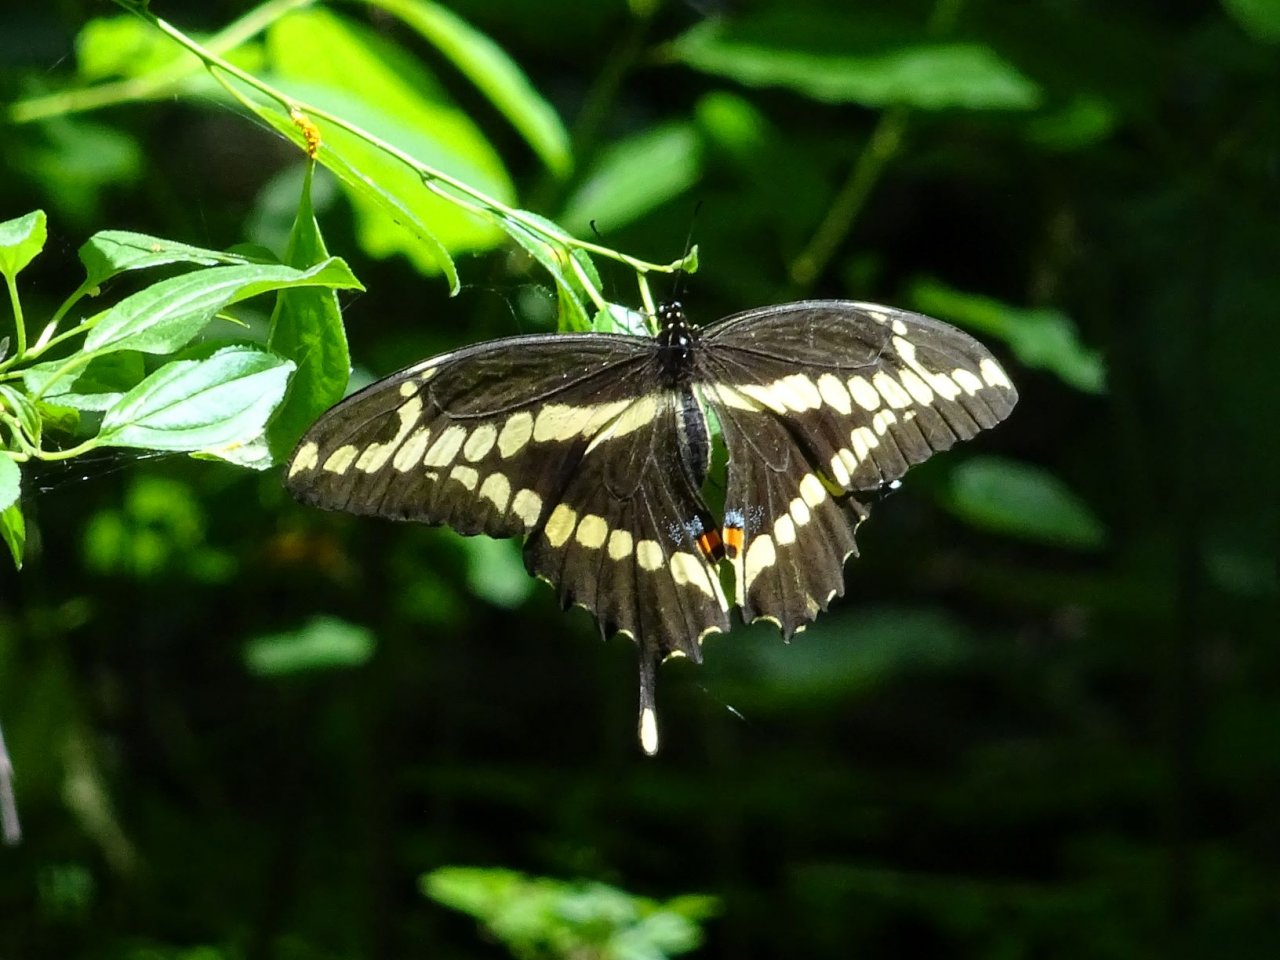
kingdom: Animalia
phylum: Arthropoda
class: Insecta
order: Lepidoptera
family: Papilionidae
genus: Papilio
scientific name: Papilio cresphontes
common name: Eastern Giant Swallowtail
